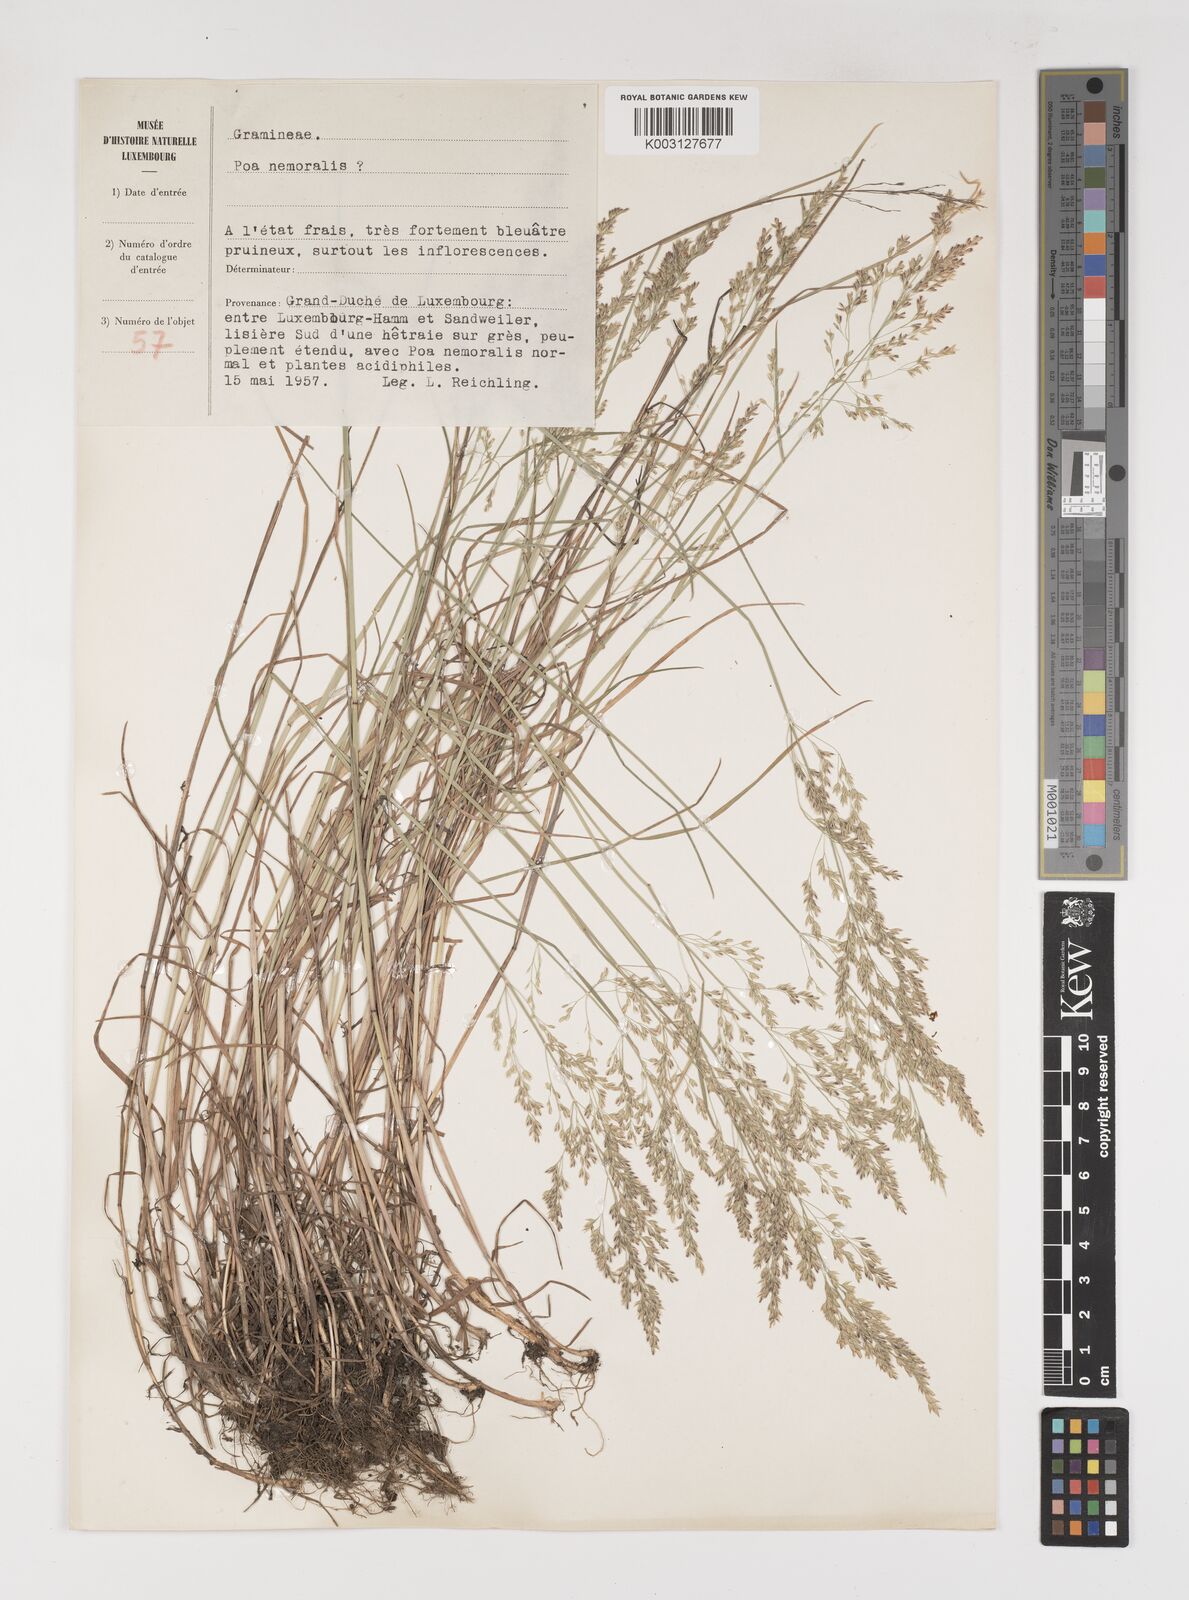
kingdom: Plantae
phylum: Tracheophyta
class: Liliopsida
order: Poales
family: Poaceae
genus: Poa
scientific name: Poa
